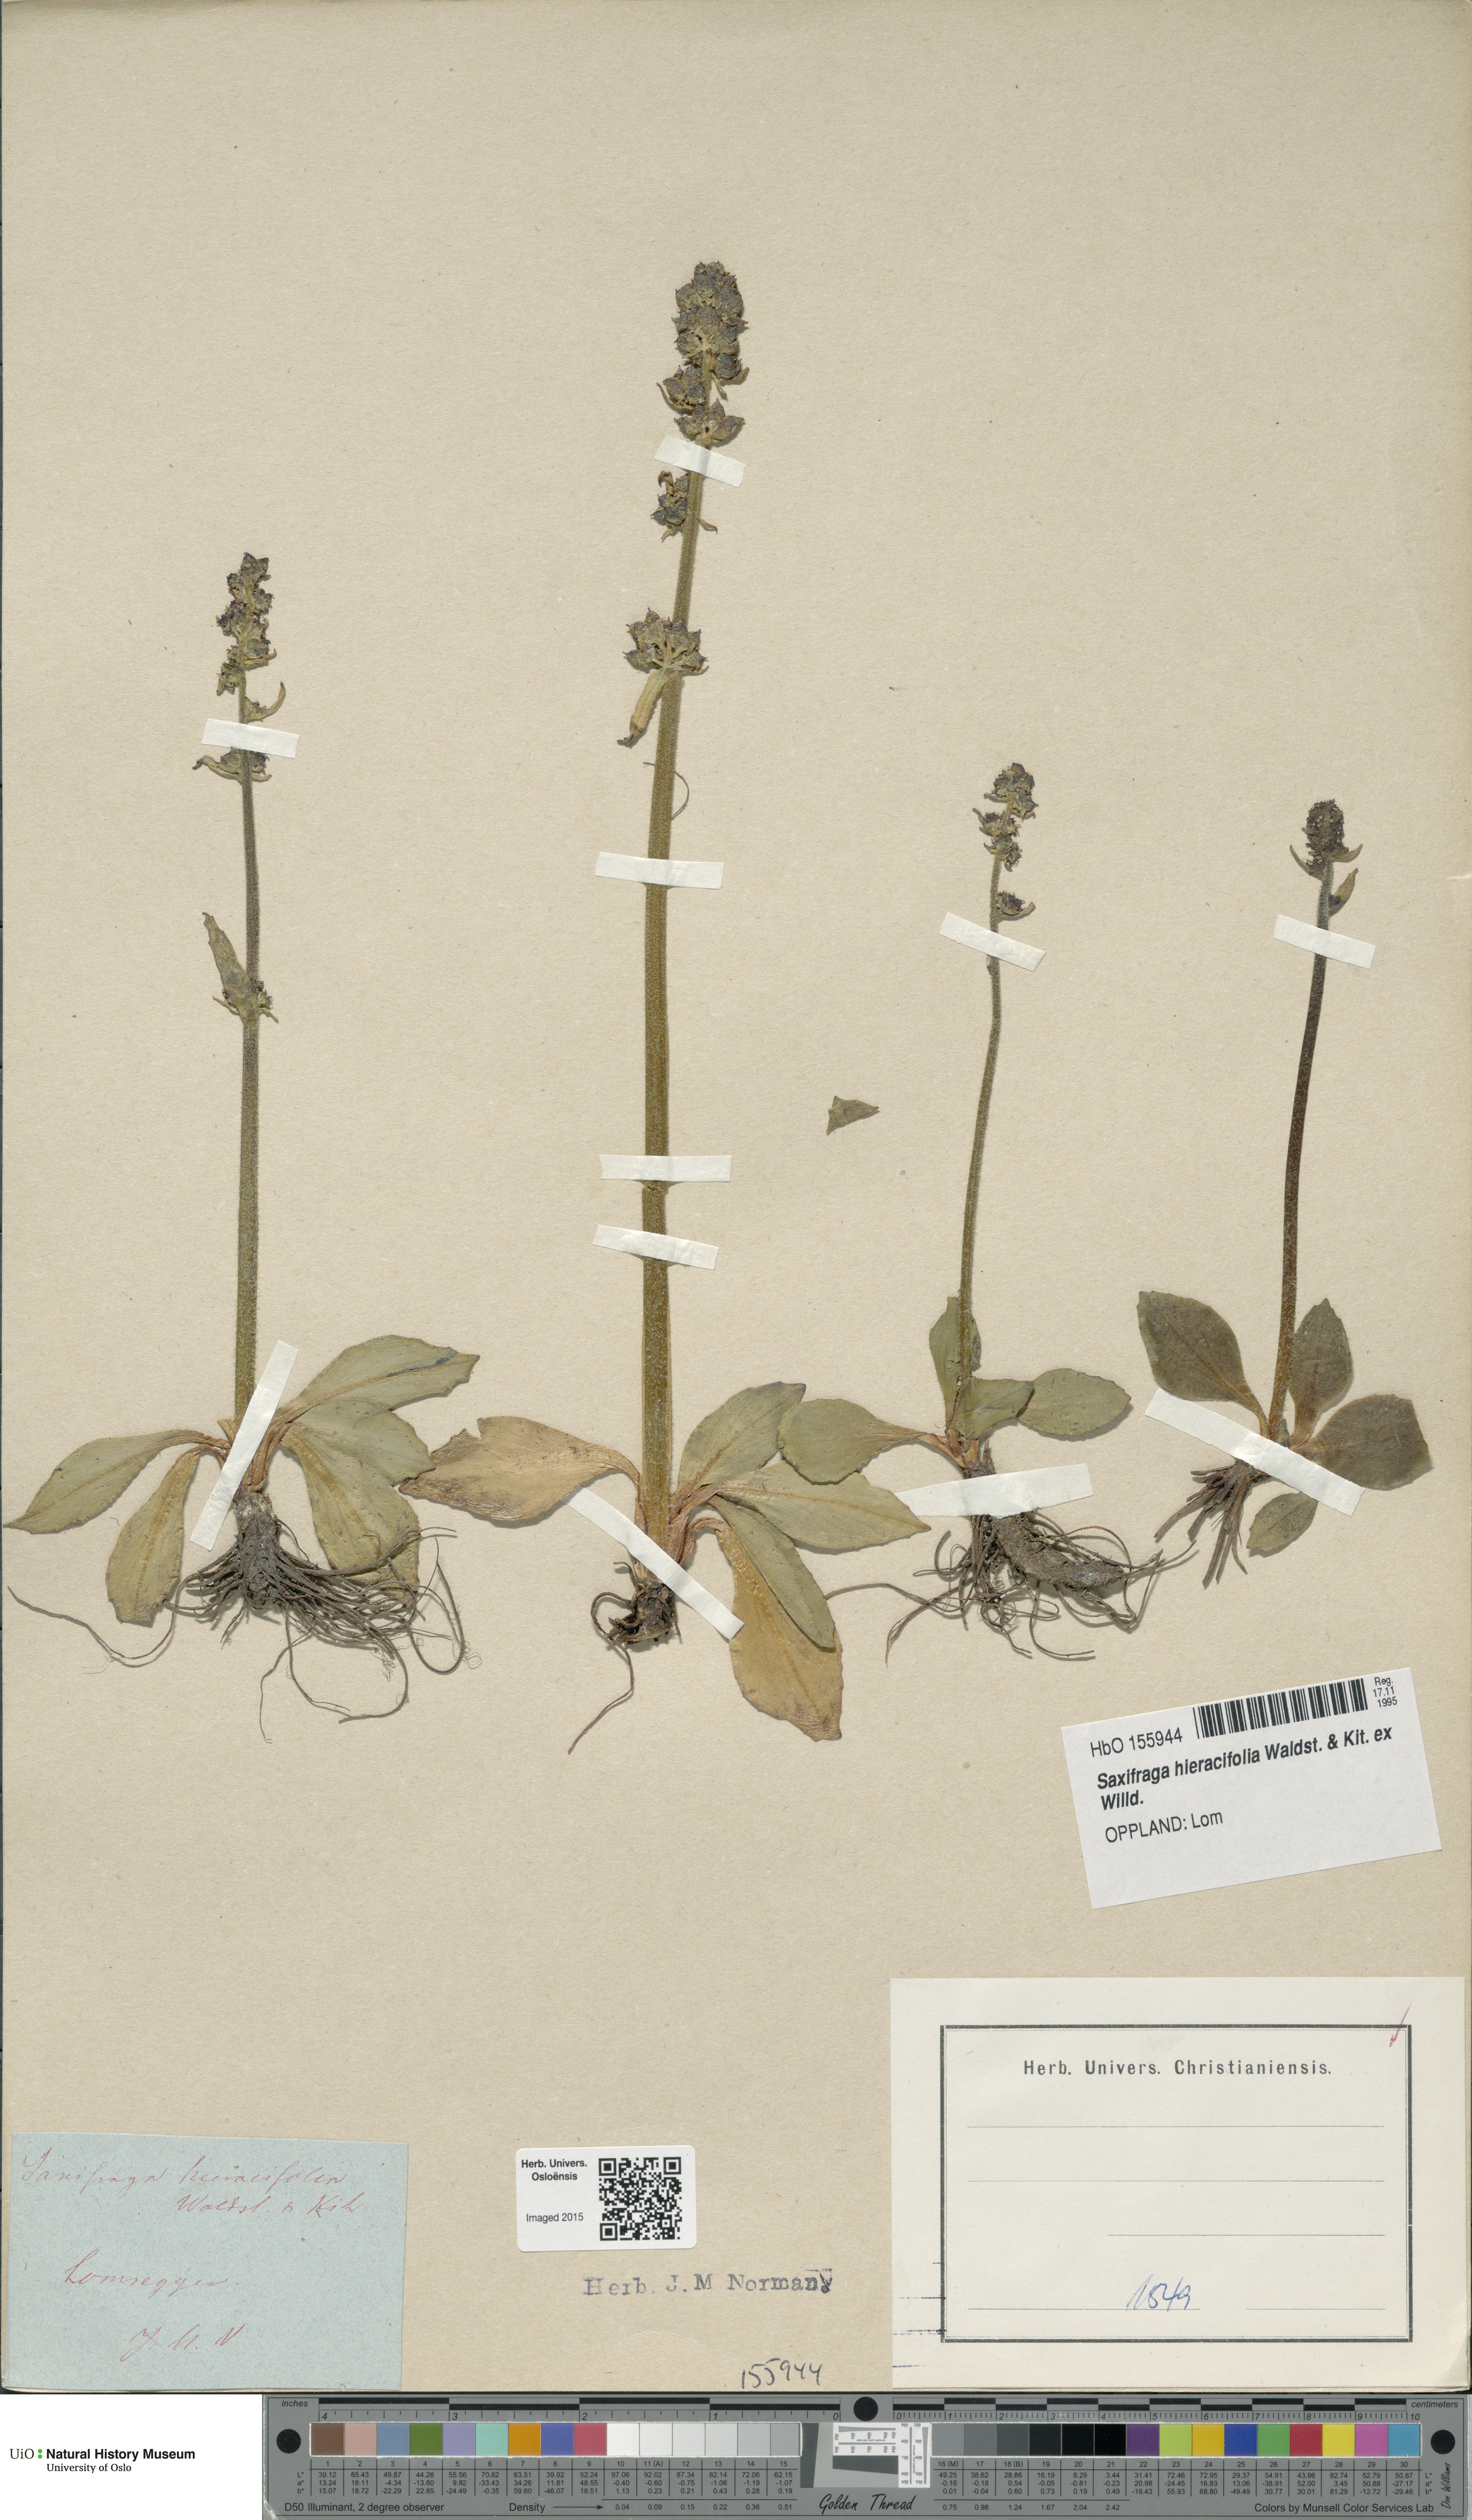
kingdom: Plantae
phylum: Tracheophyta
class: Magnoliopsida
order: Saxifragales
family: Saxifragaceae
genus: Micranthes
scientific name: Micranthes hieraciifolia
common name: Hawkweed-leaved saxifrage
